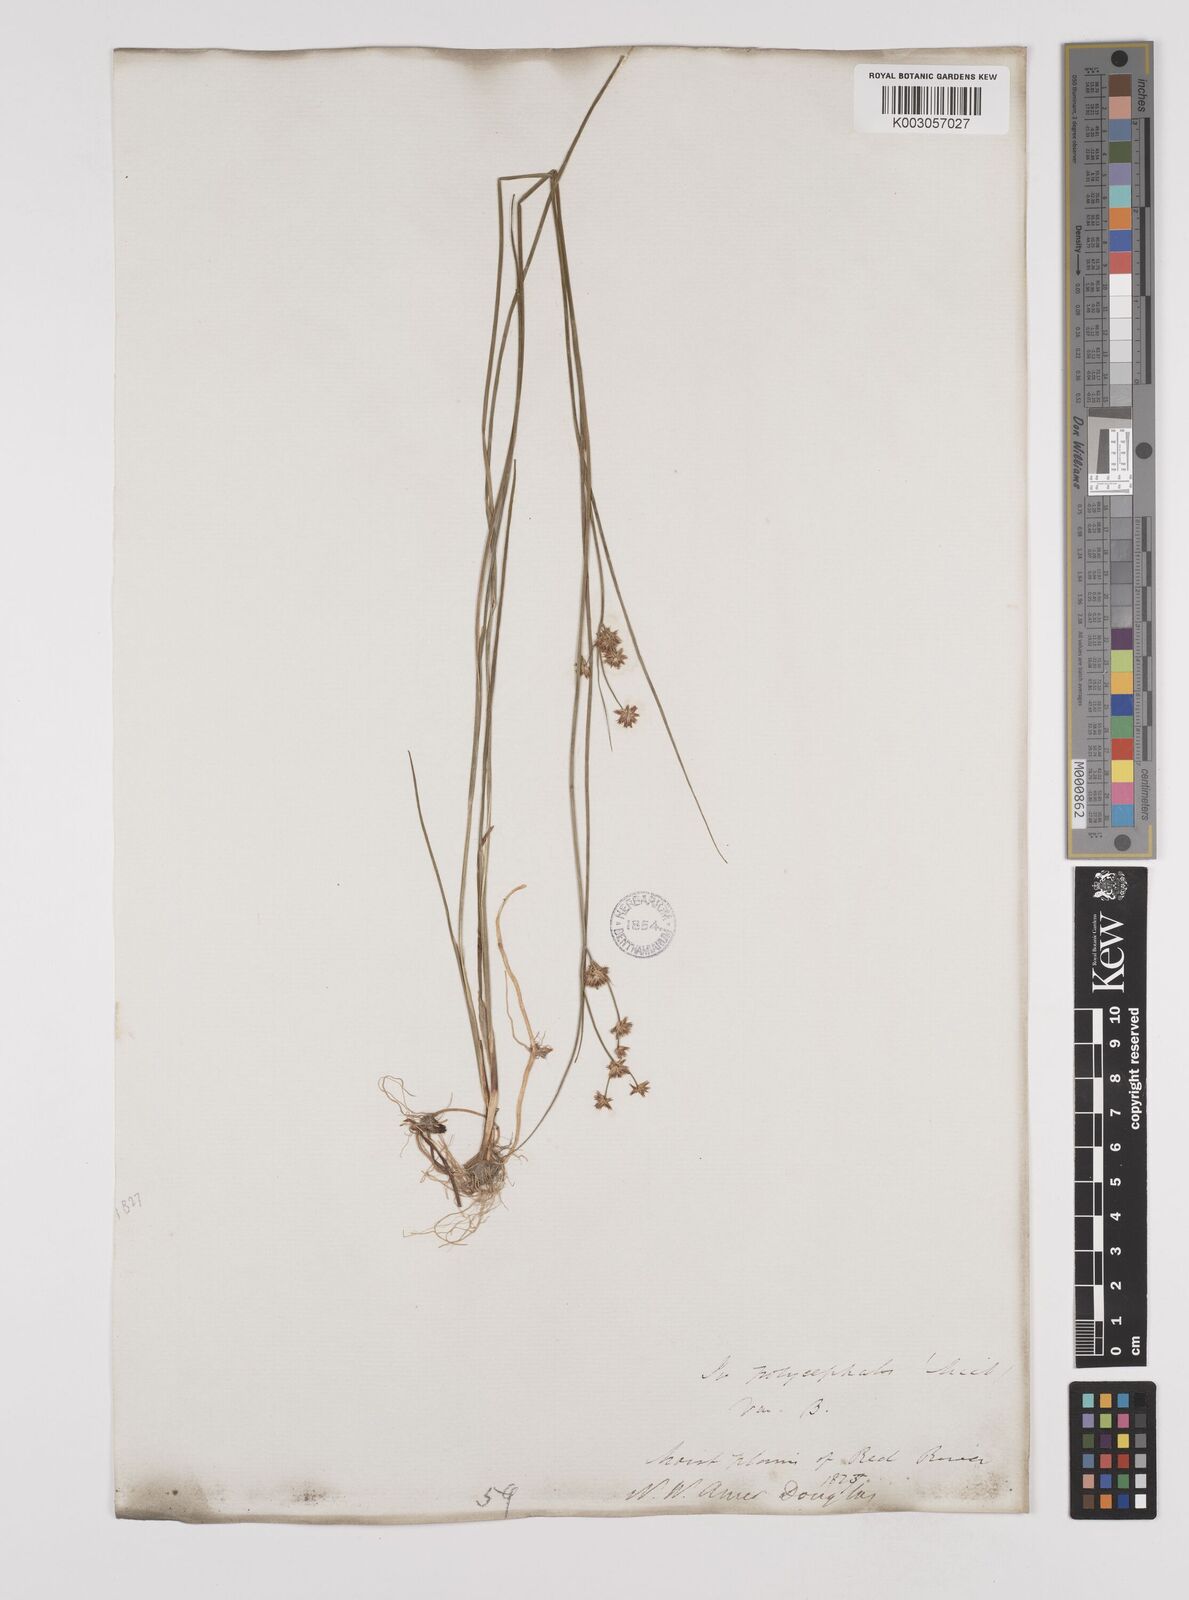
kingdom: Plantae
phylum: Tracheophyta
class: Liliopsida
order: Poales
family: Juncaceae
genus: Juncus
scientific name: Juncus canadensis
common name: Canada rush
